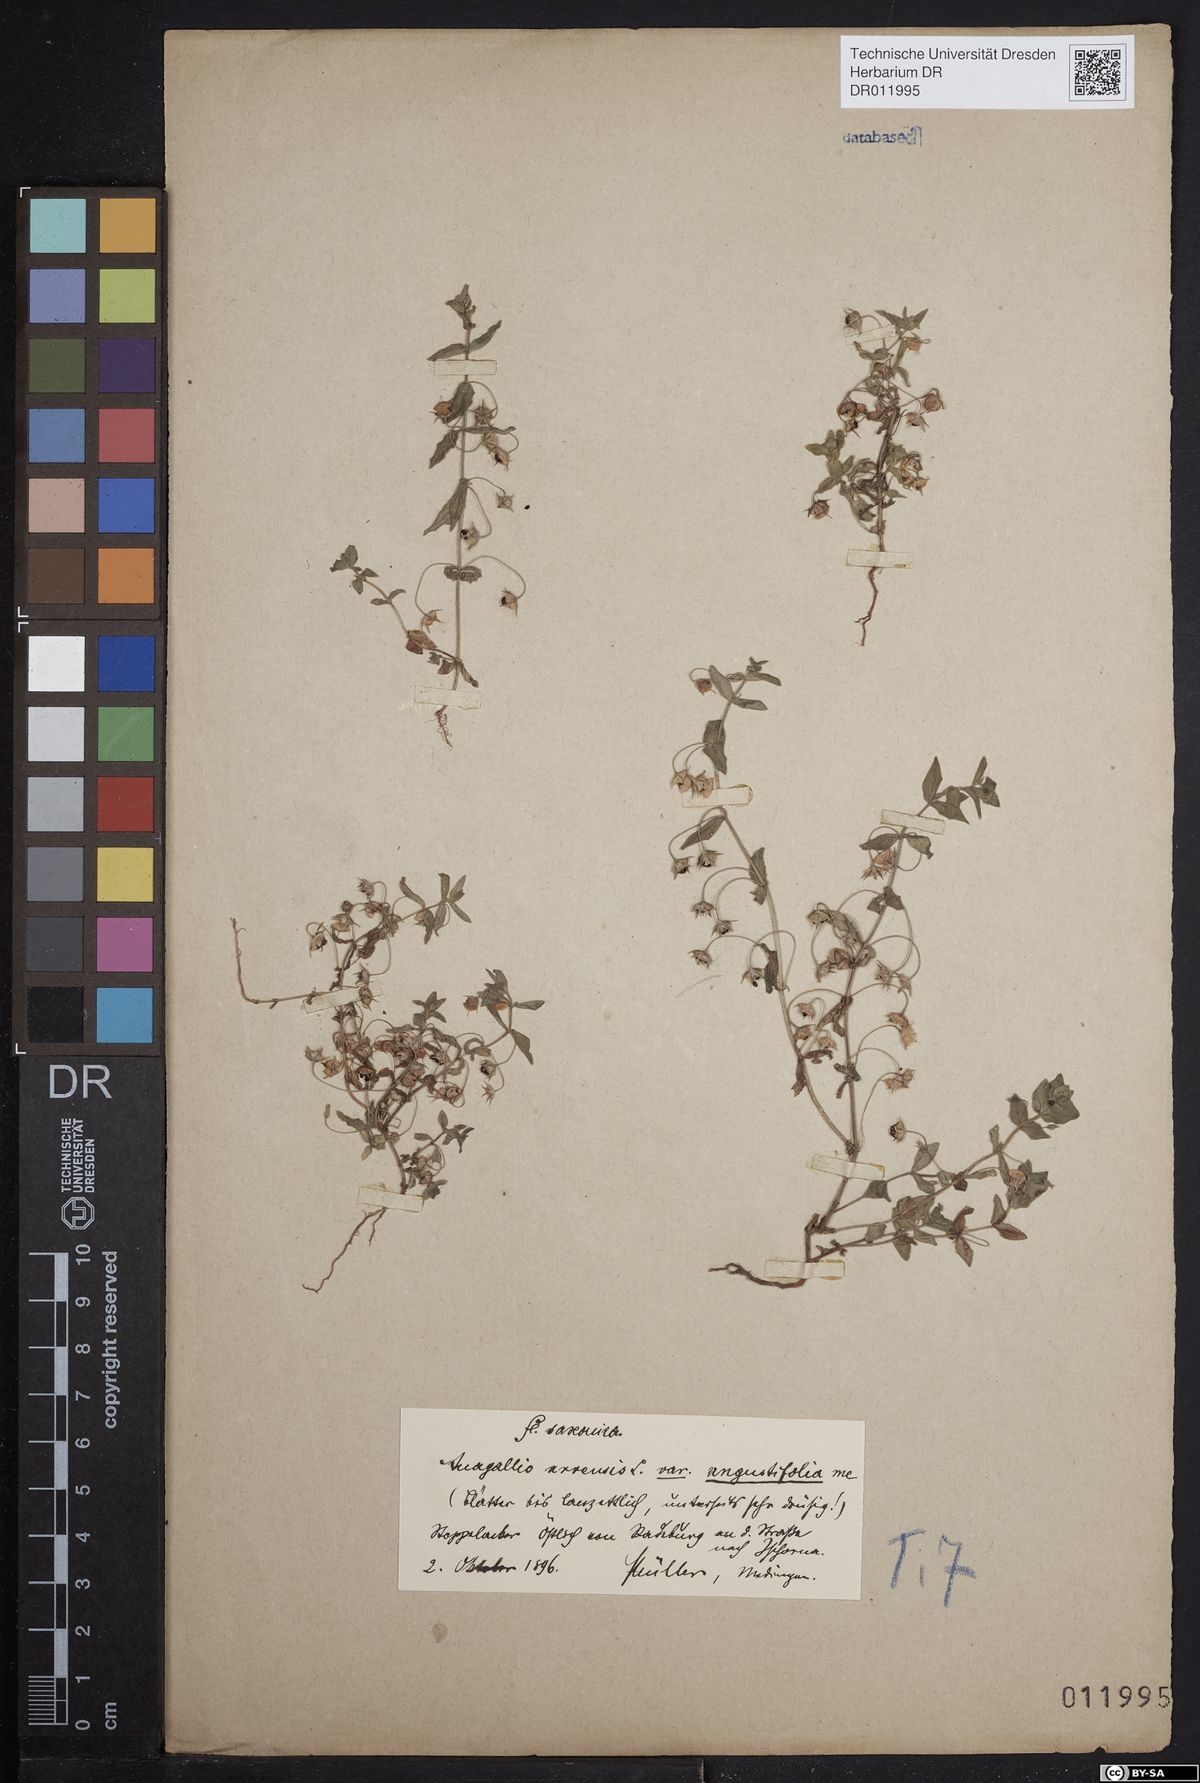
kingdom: Plantae
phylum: Tracheophyta
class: Magnoliopsida
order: Ericales
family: Primulaceae
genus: Lysimachia
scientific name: Lysimachia arvensis
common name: Scarlet pimpernel
